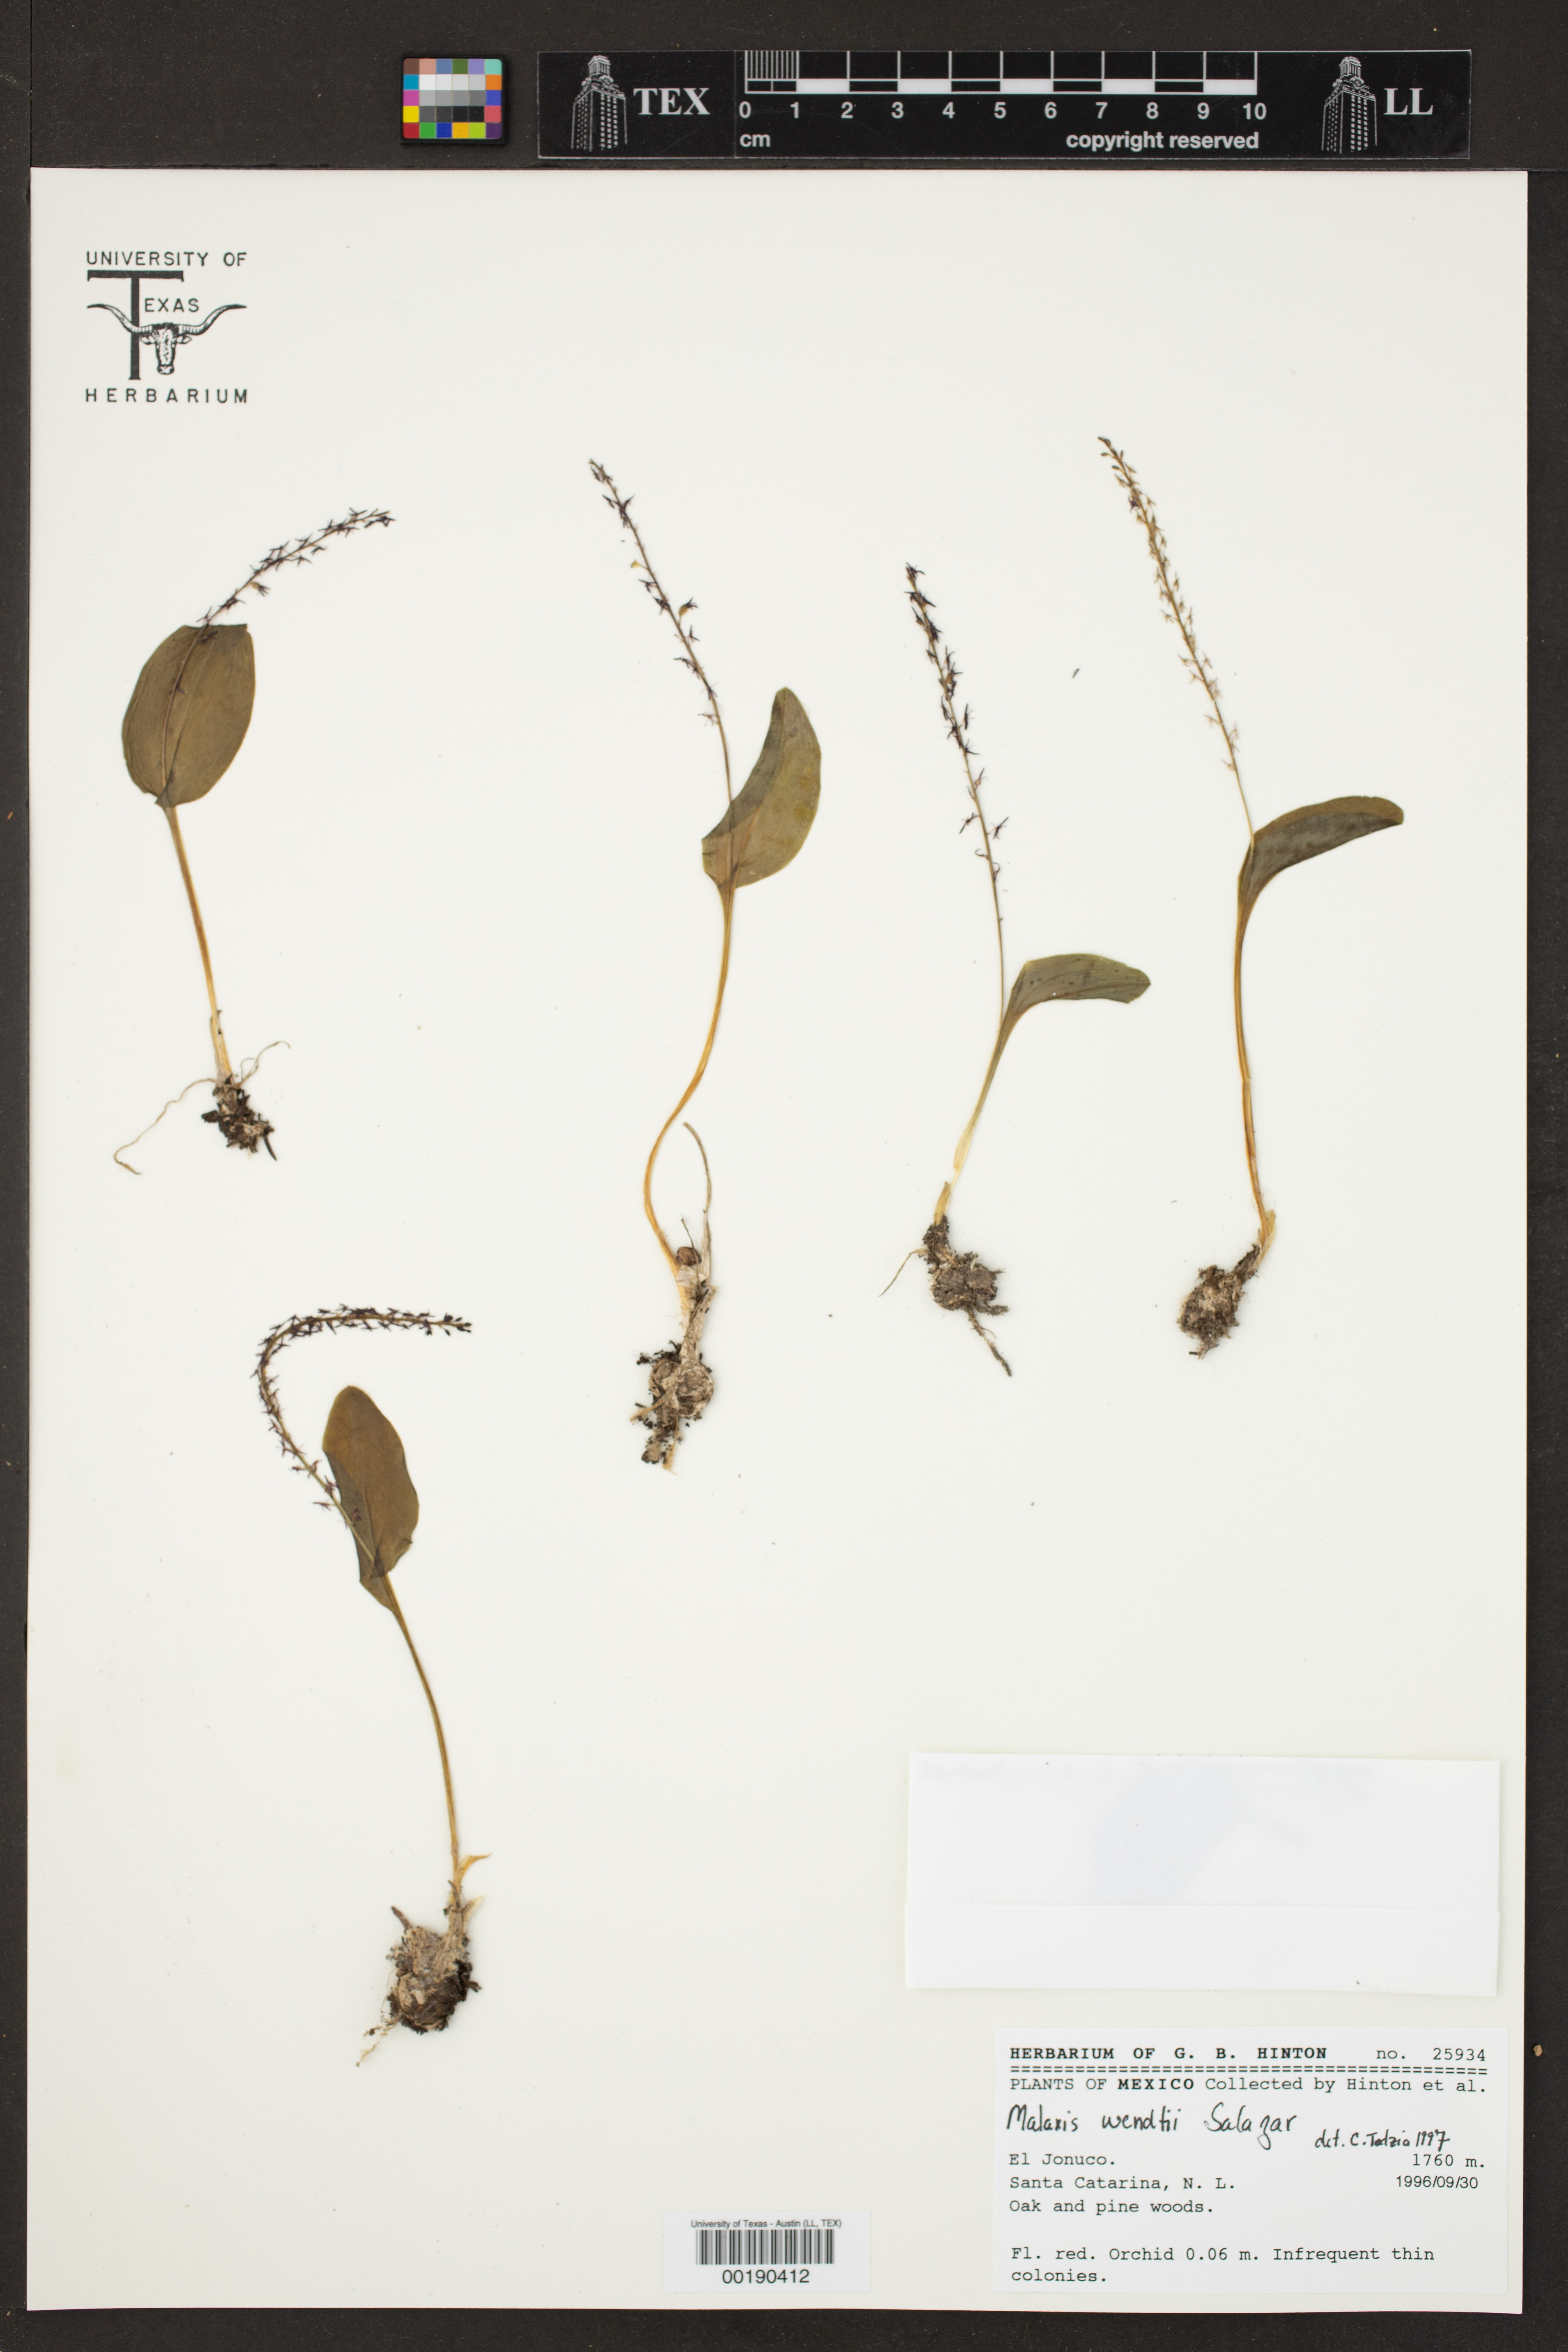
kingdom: Plantae
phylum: Tracheophyta
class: Liliopsida
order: Asparagales
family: Orchidaceae
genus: Tamayorkis
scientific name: Tamayorkis wendtii
